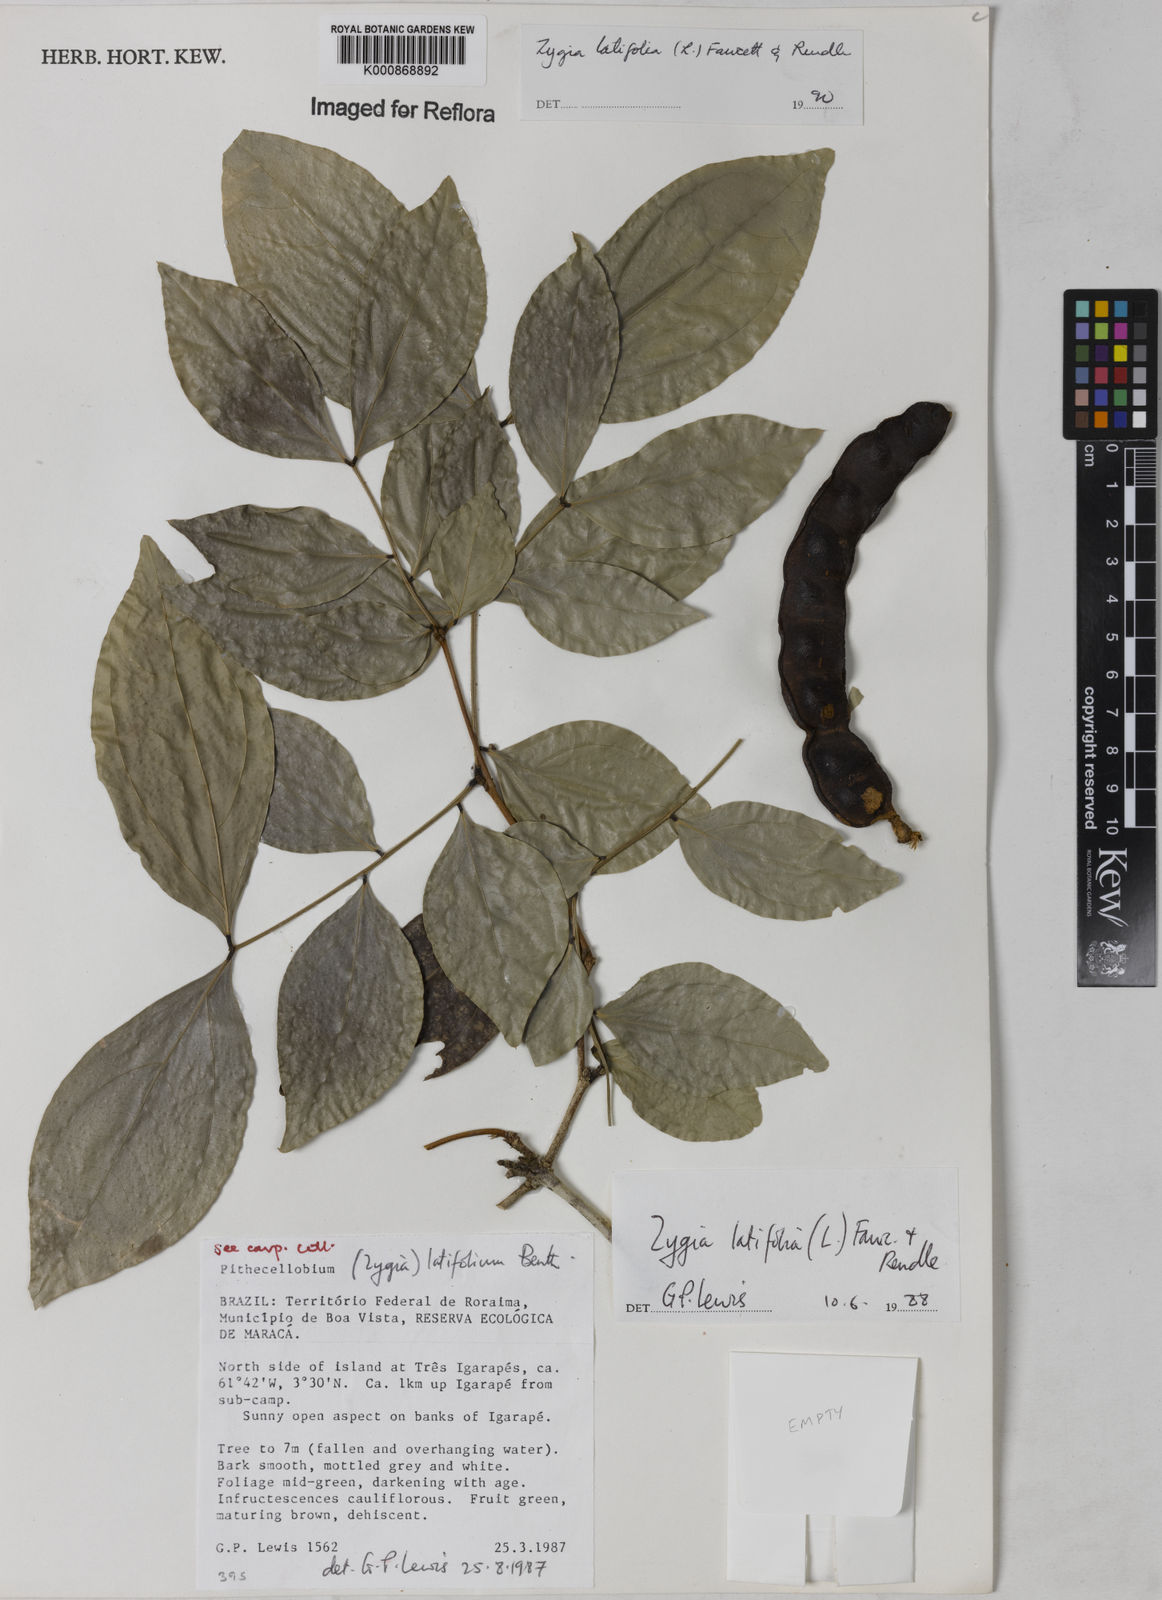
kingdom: Plantae
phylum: Tracheophyta
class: Magnoliopsida
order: Fabales
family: Fabaceae
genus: Zygia
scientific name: Zygia latifolia
